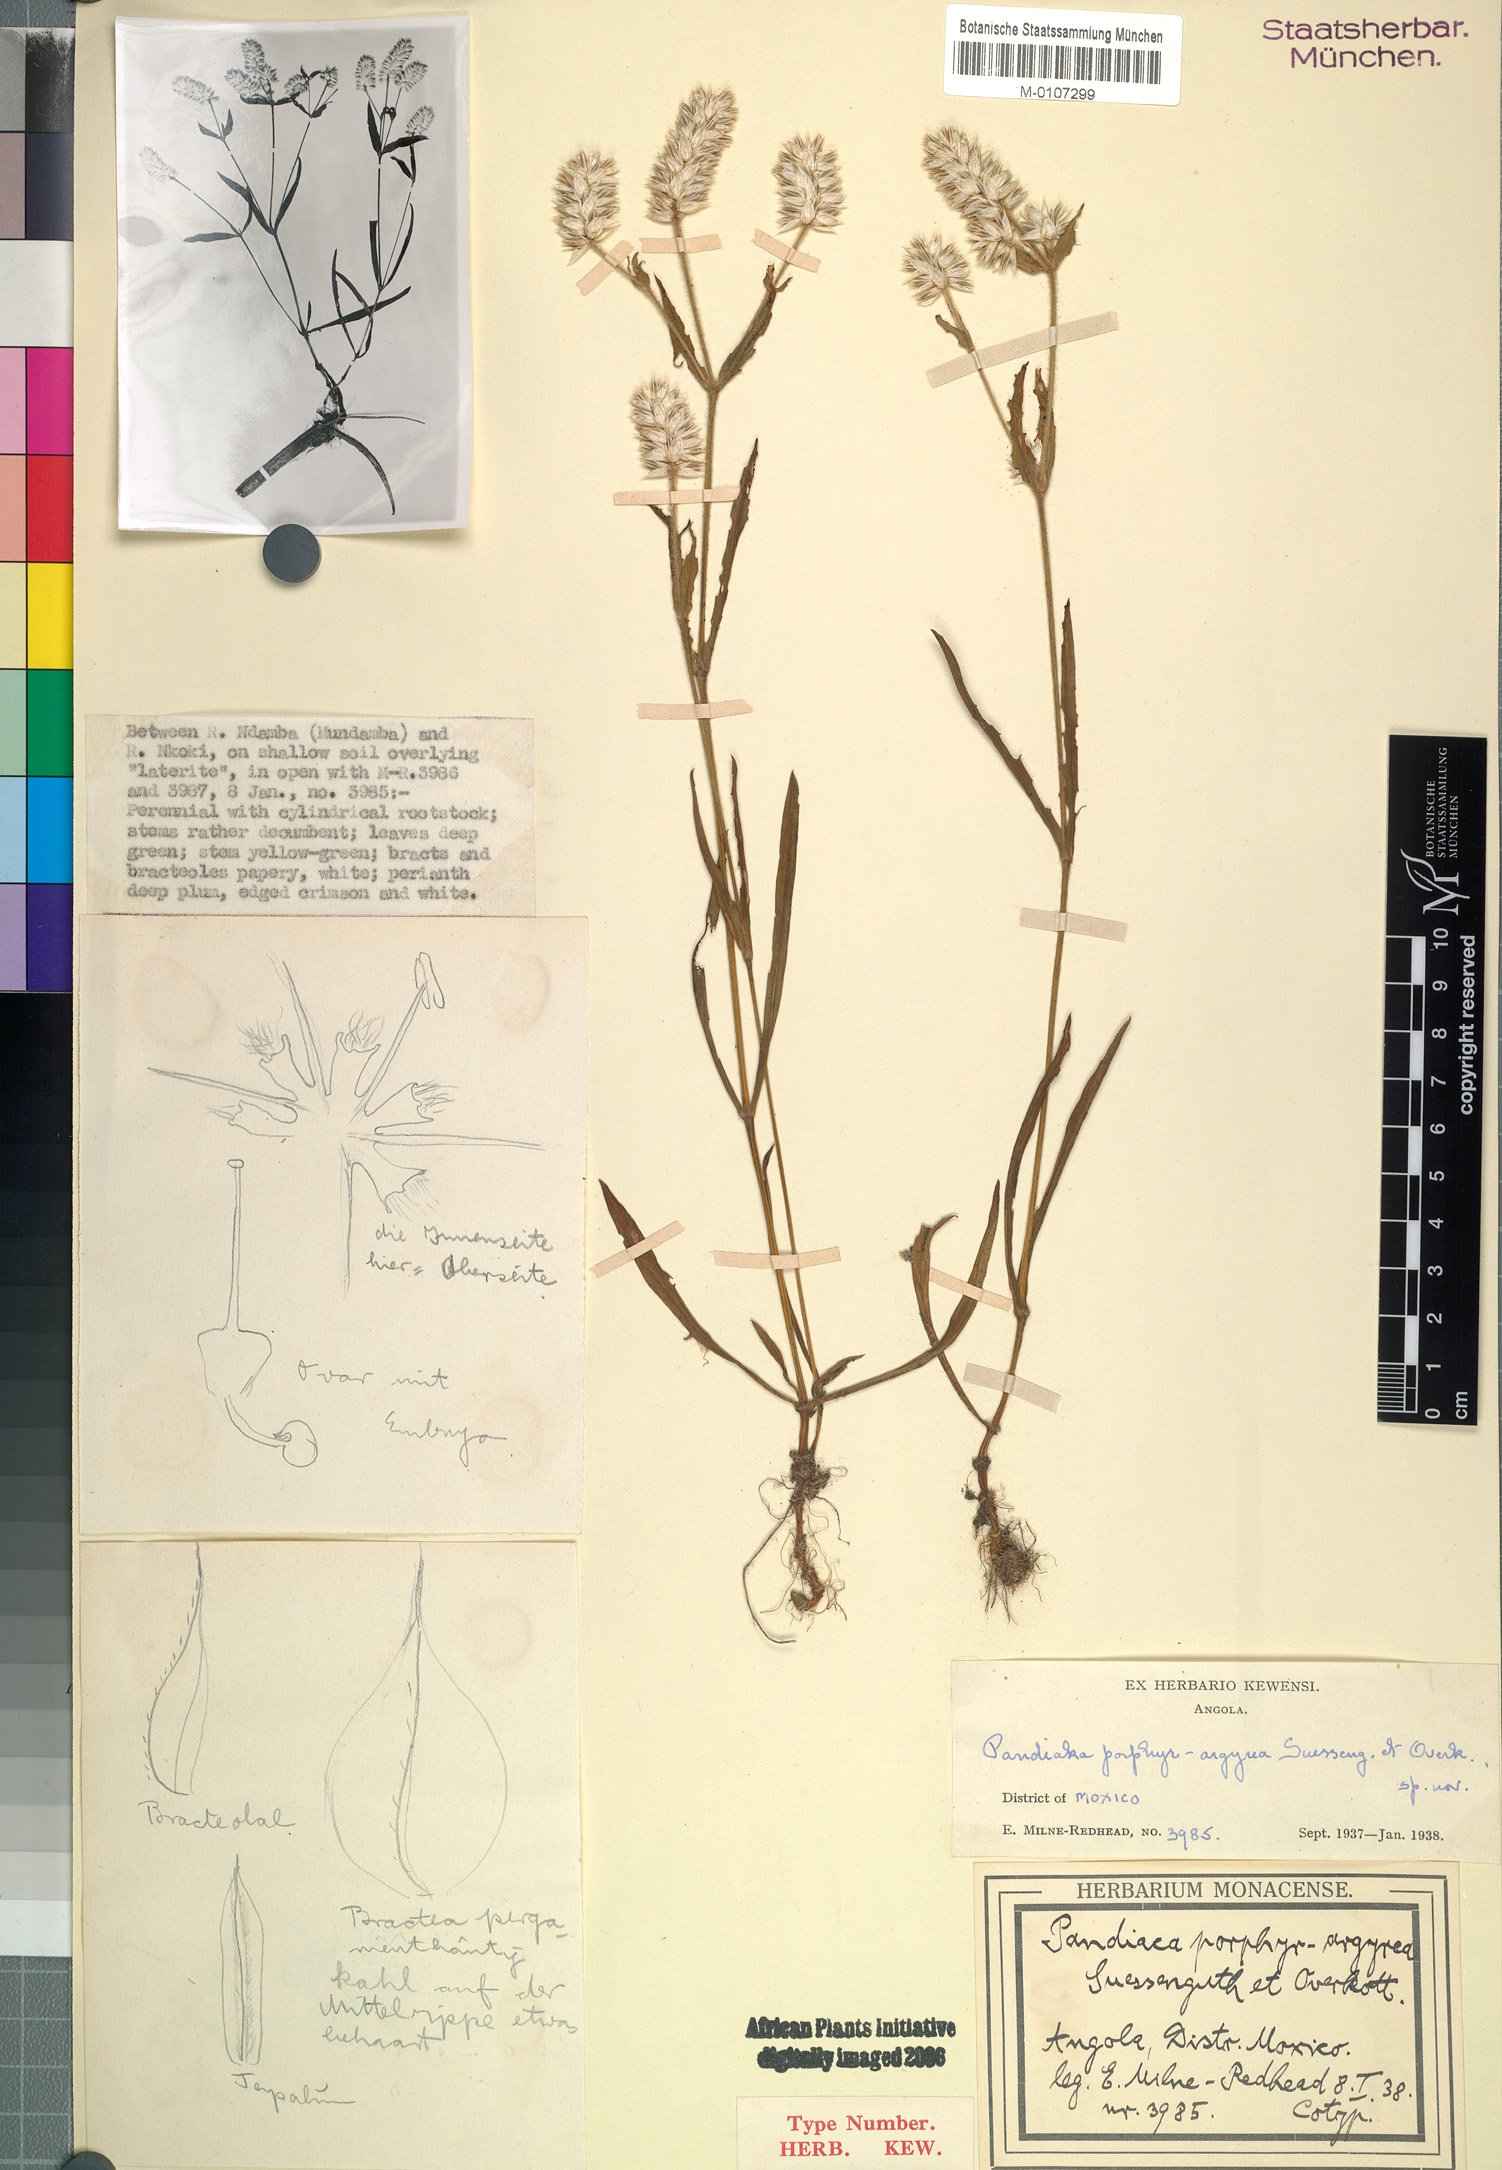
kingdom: Plantae
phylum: Tracheophyta
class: Magnoliopsida
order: Caryophyllales
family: Amaranthaceae
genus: Pandiaka
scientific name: Pandiaka porphyrargyrea
